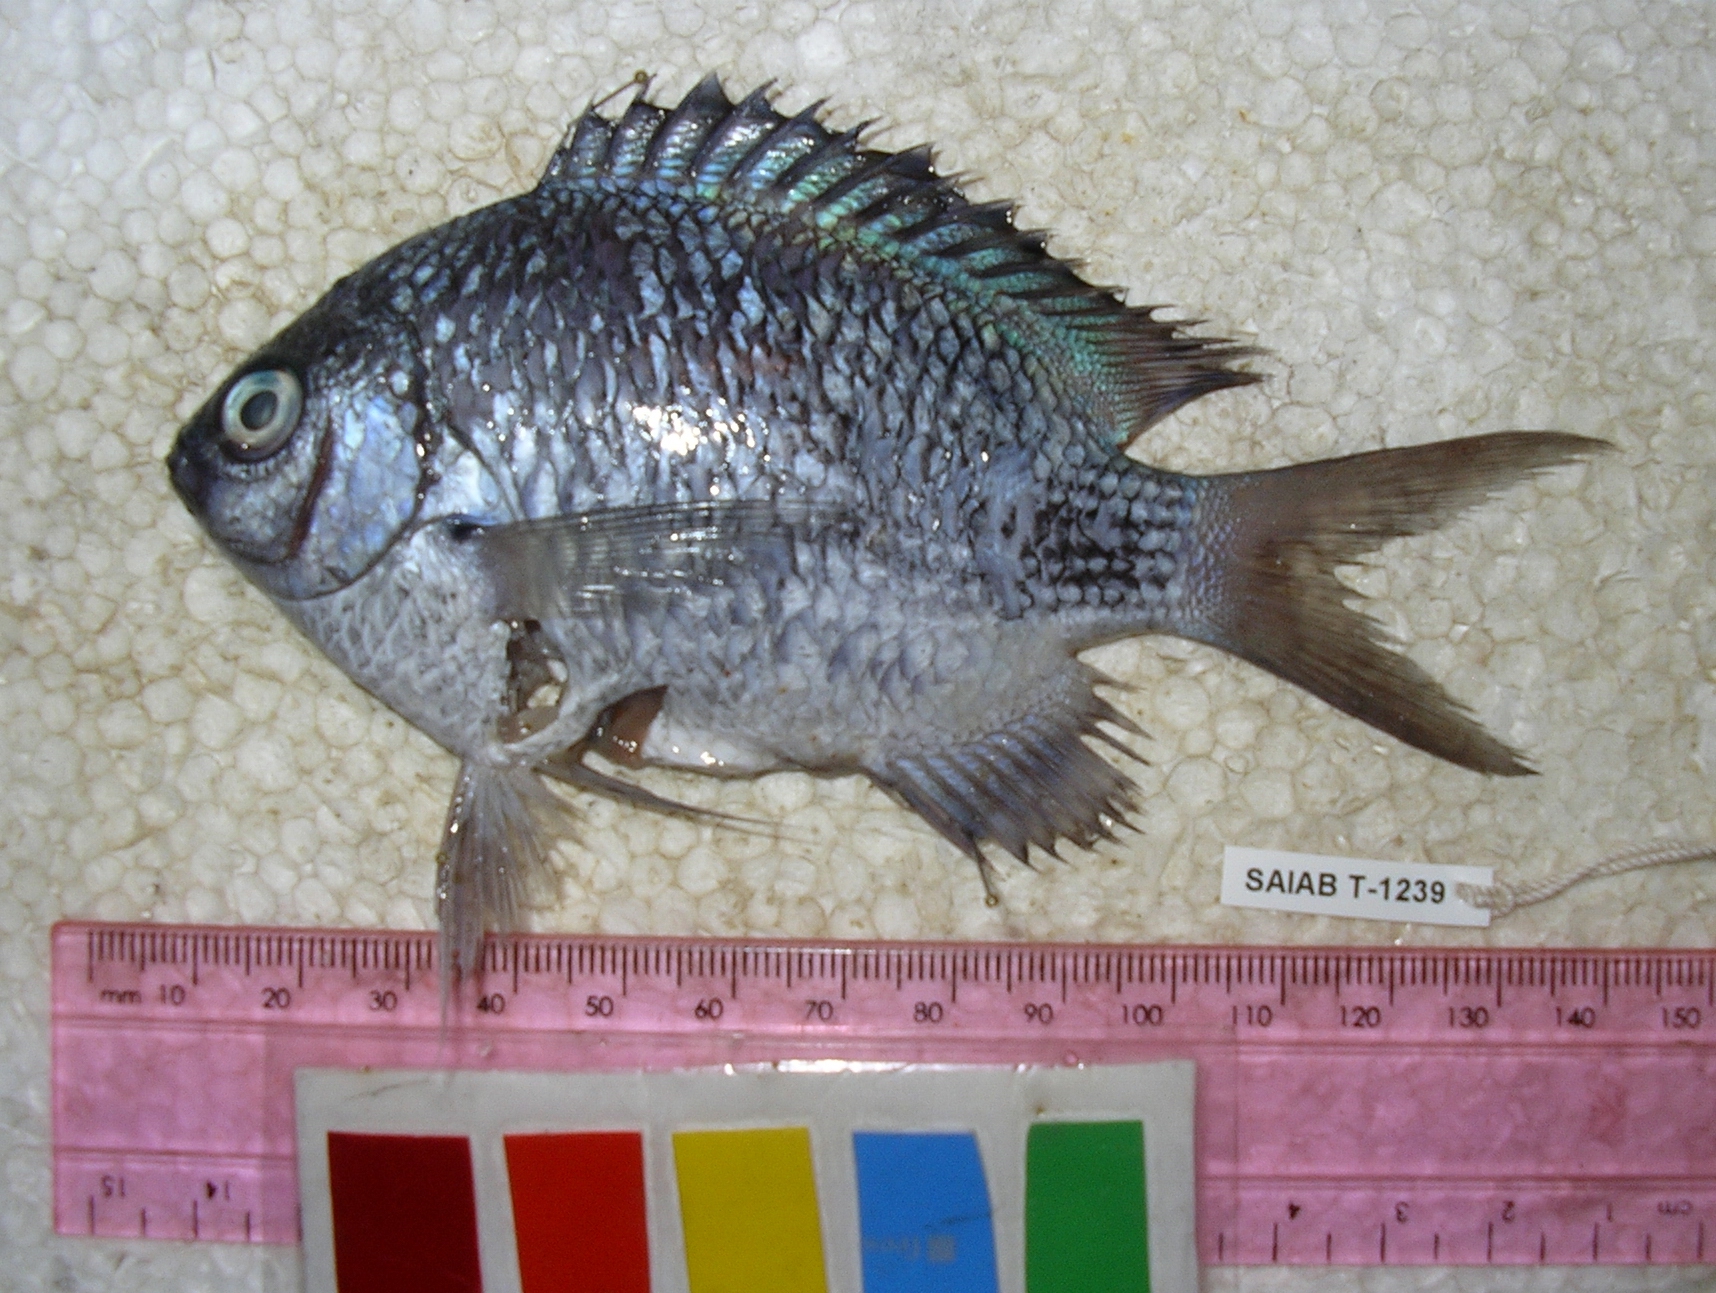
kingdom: Animalia
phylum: Chordata
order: Perciformes
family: Pomacentridae
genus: Pomacentrus
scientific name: Pomacentrus
